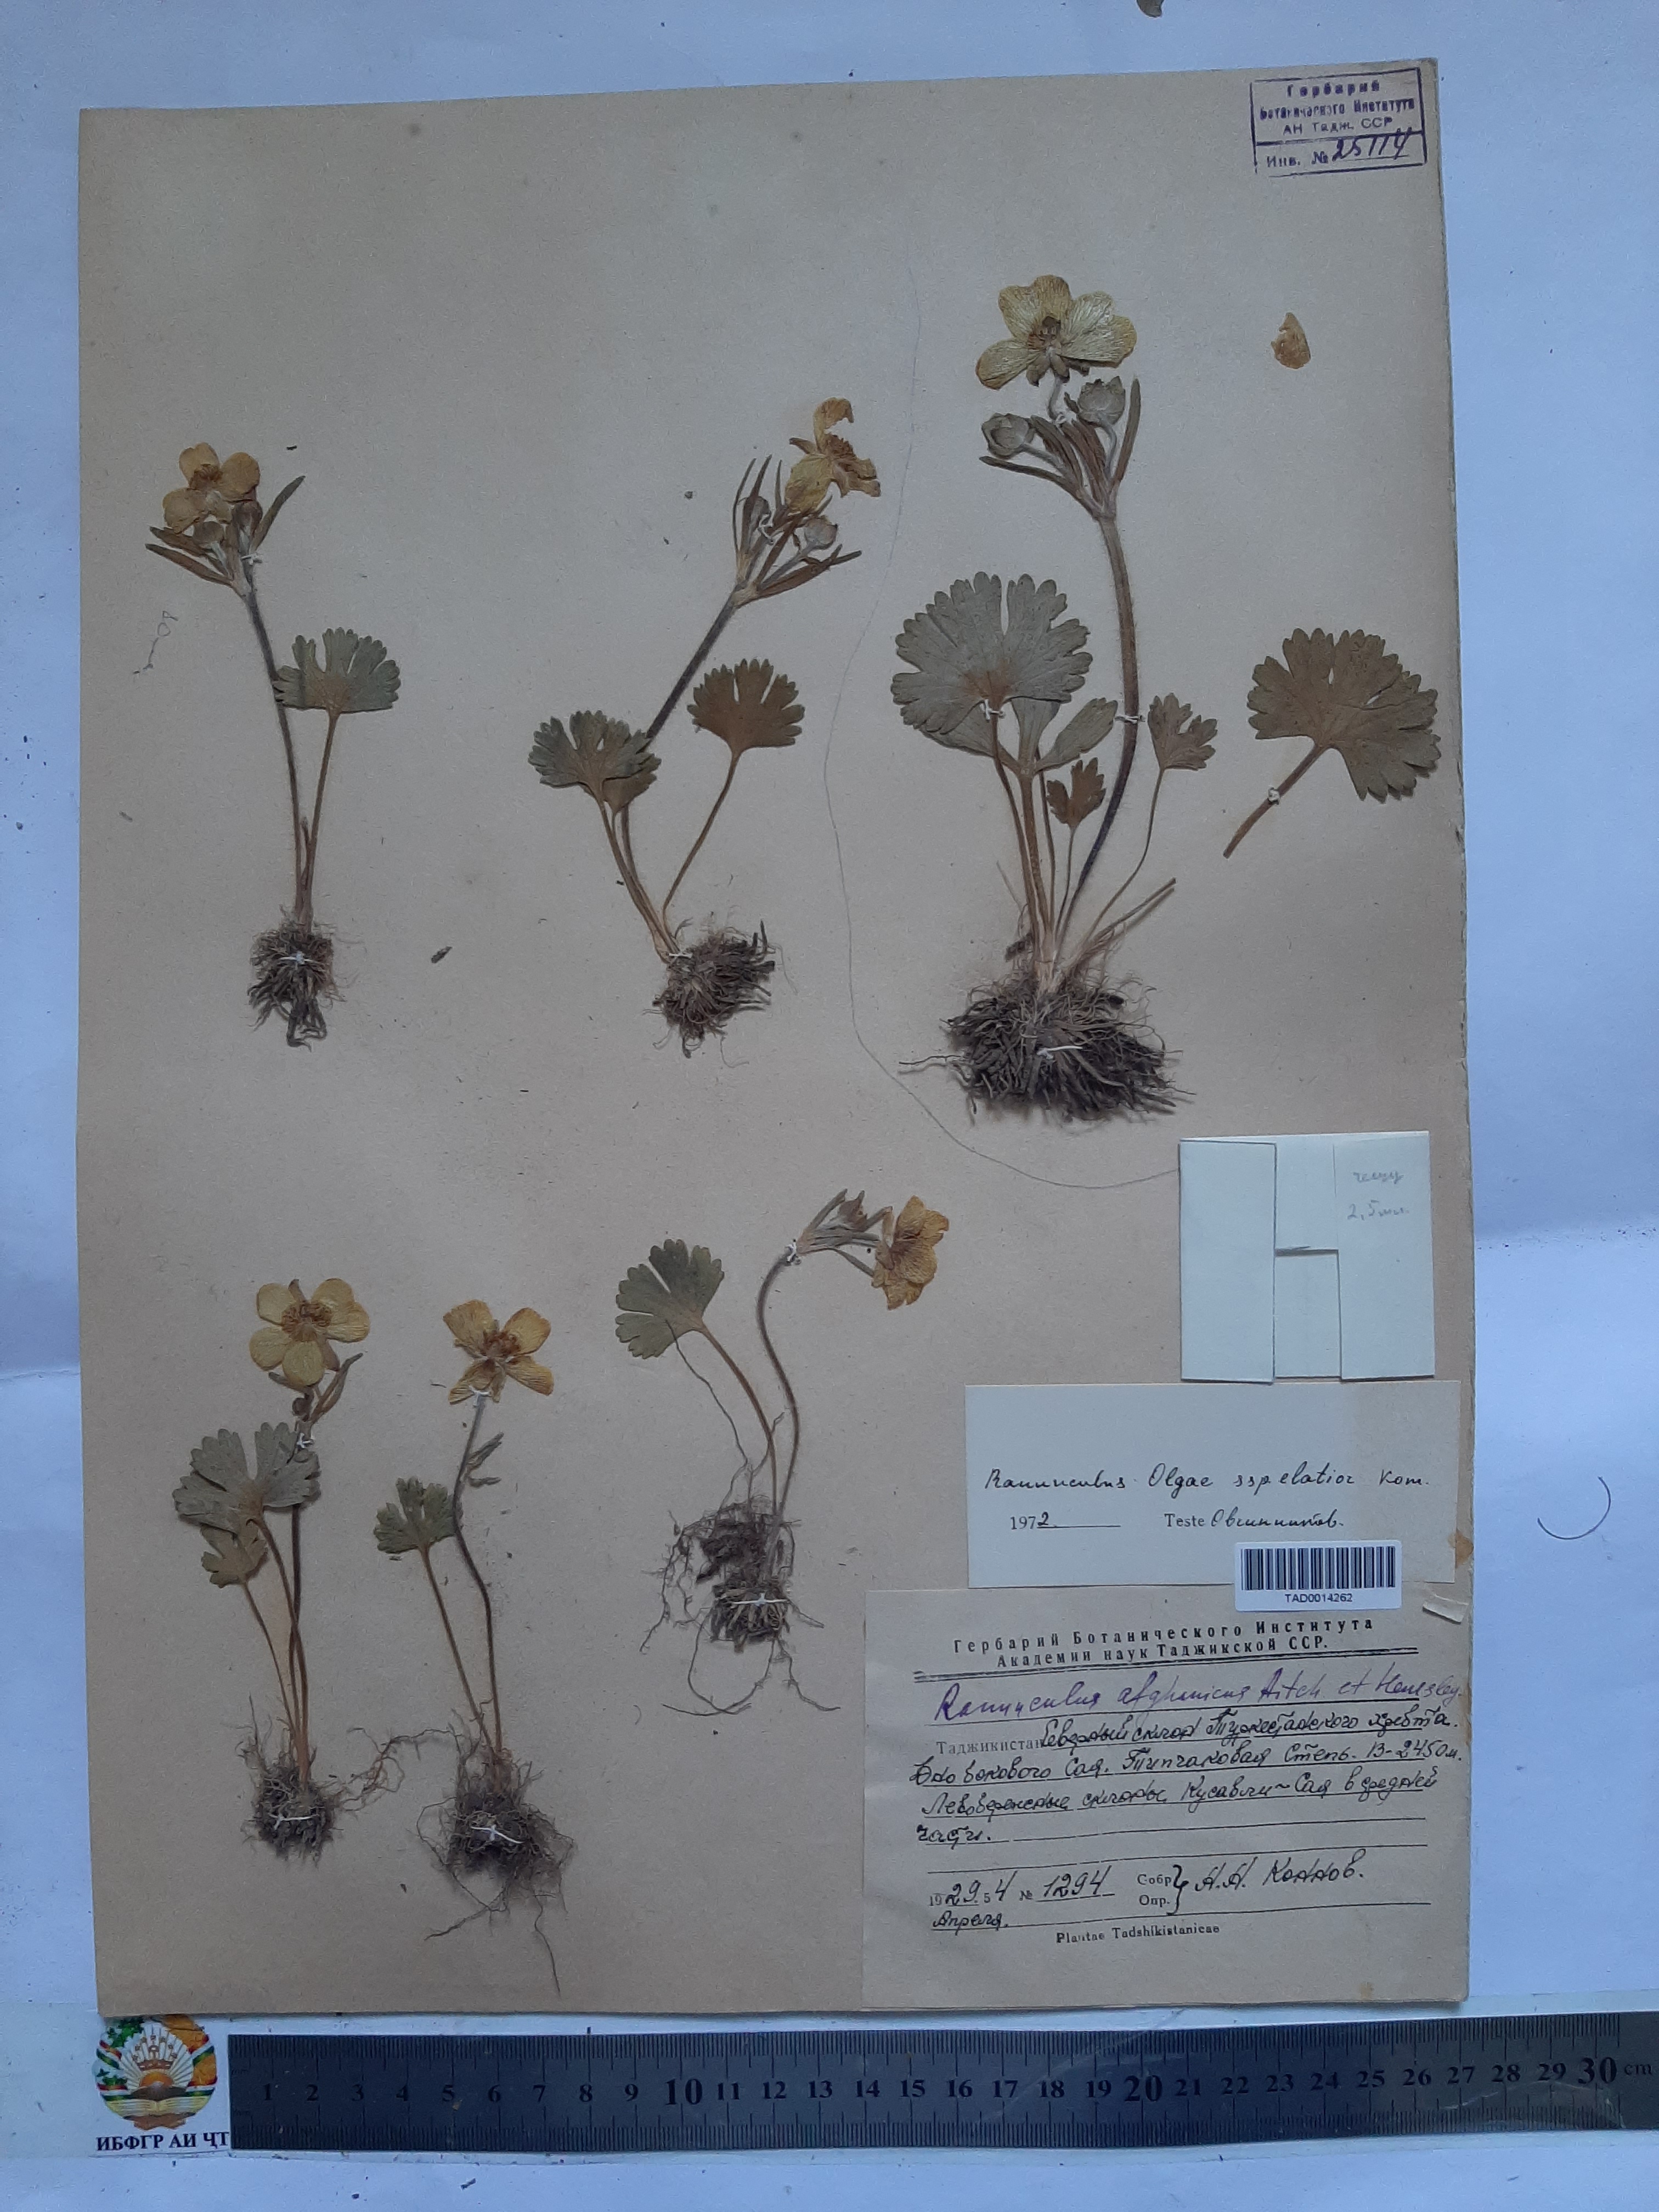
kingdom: Plantae
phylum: Tracheophyta
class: Magnoliopsida
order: Ranunculales
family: Ranunculaceae
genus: Ranunculus
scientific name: Ranunculus afghanicus
